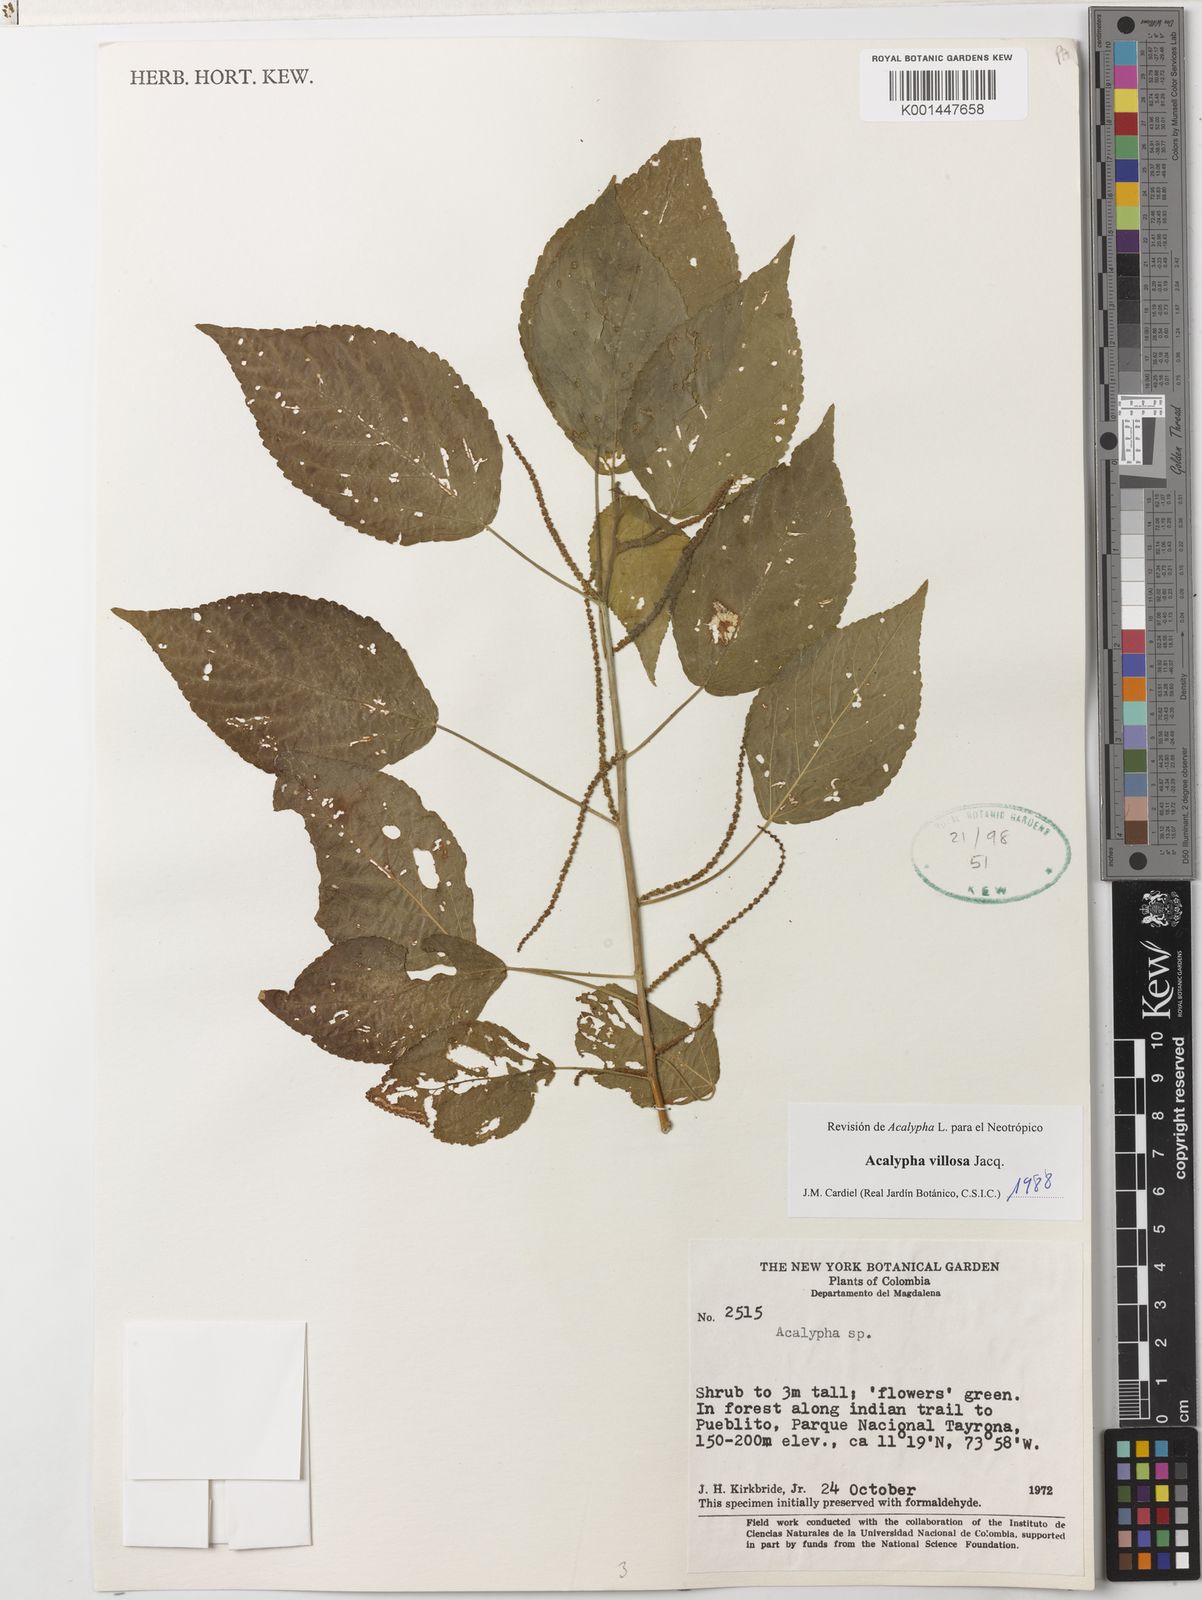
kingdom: Plantae
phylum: Tracheophyta
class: Magnoliopsida
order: Malpighiales
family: Euphorbiaceae
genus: Acalypha
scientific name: Acalypha villosa
